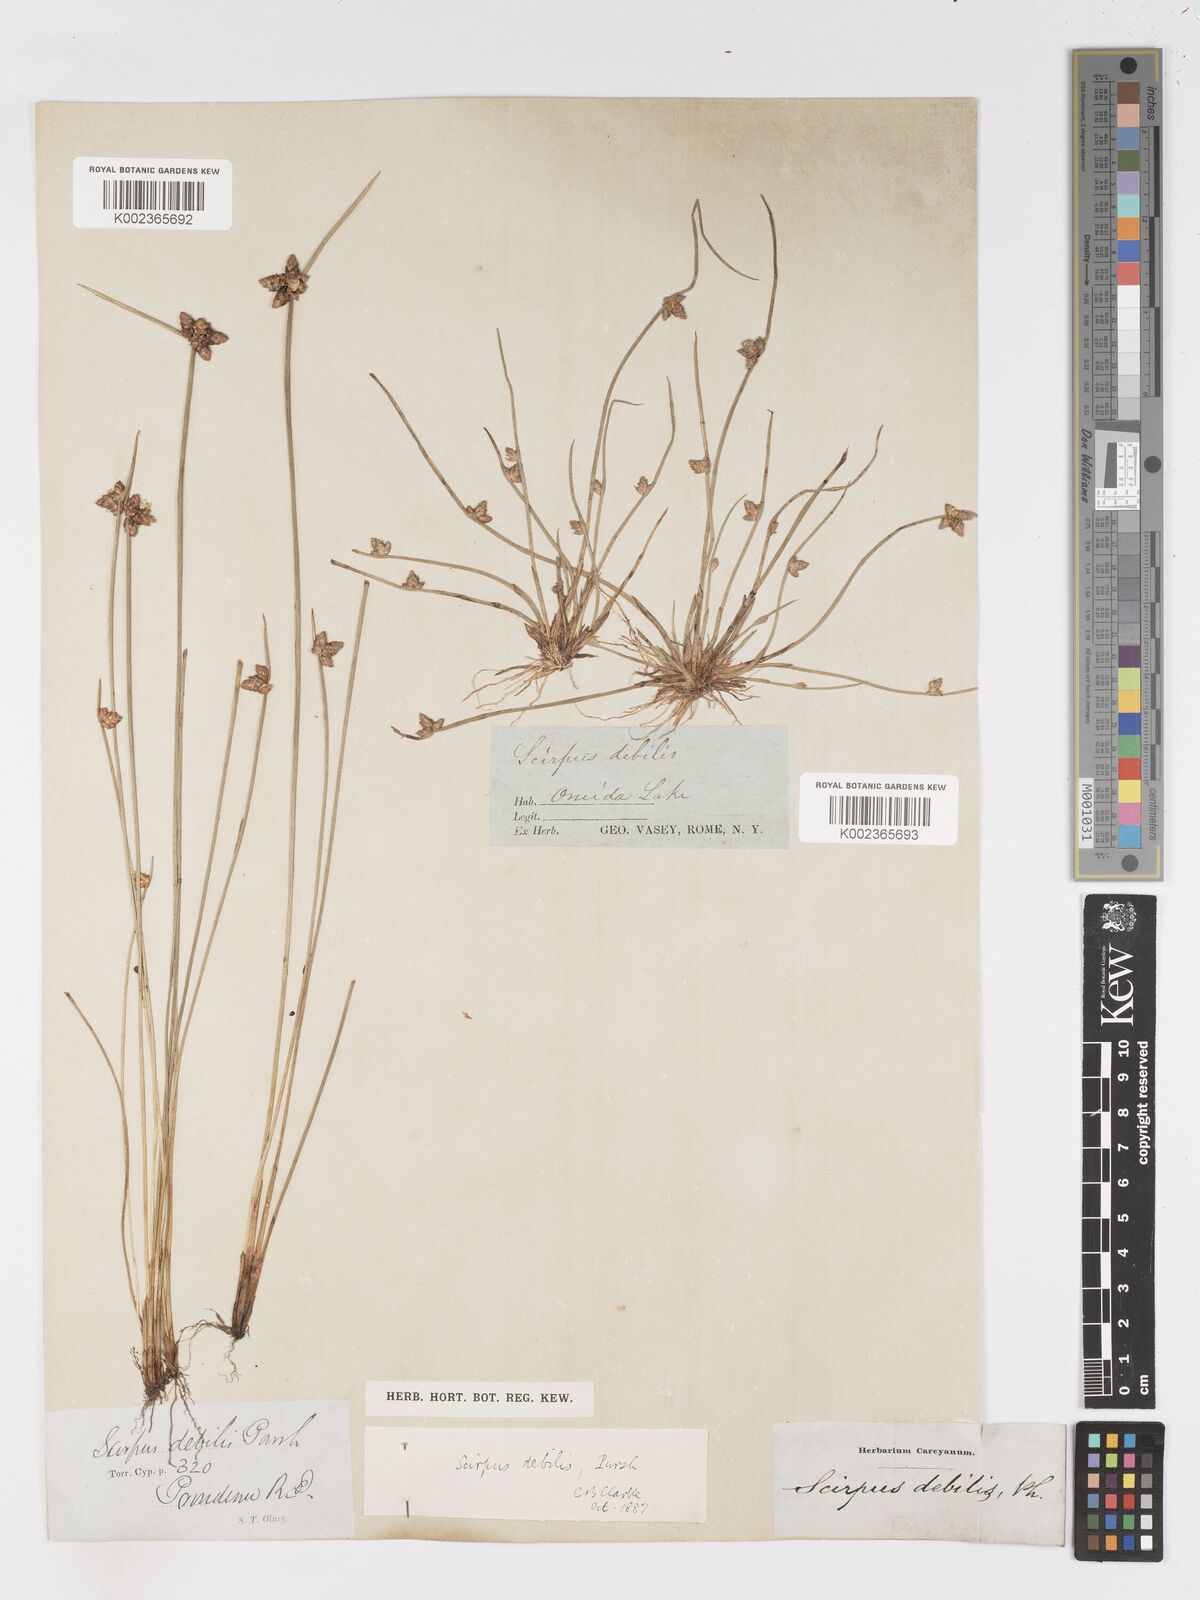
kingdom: Plantae
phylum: Tracheophyta
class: Liliopsida
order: Poales
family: Cyperaceae
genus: Schoenoplectiella
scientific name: Schoenoplectiella purshiana
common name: Weak-stalked bulrush
